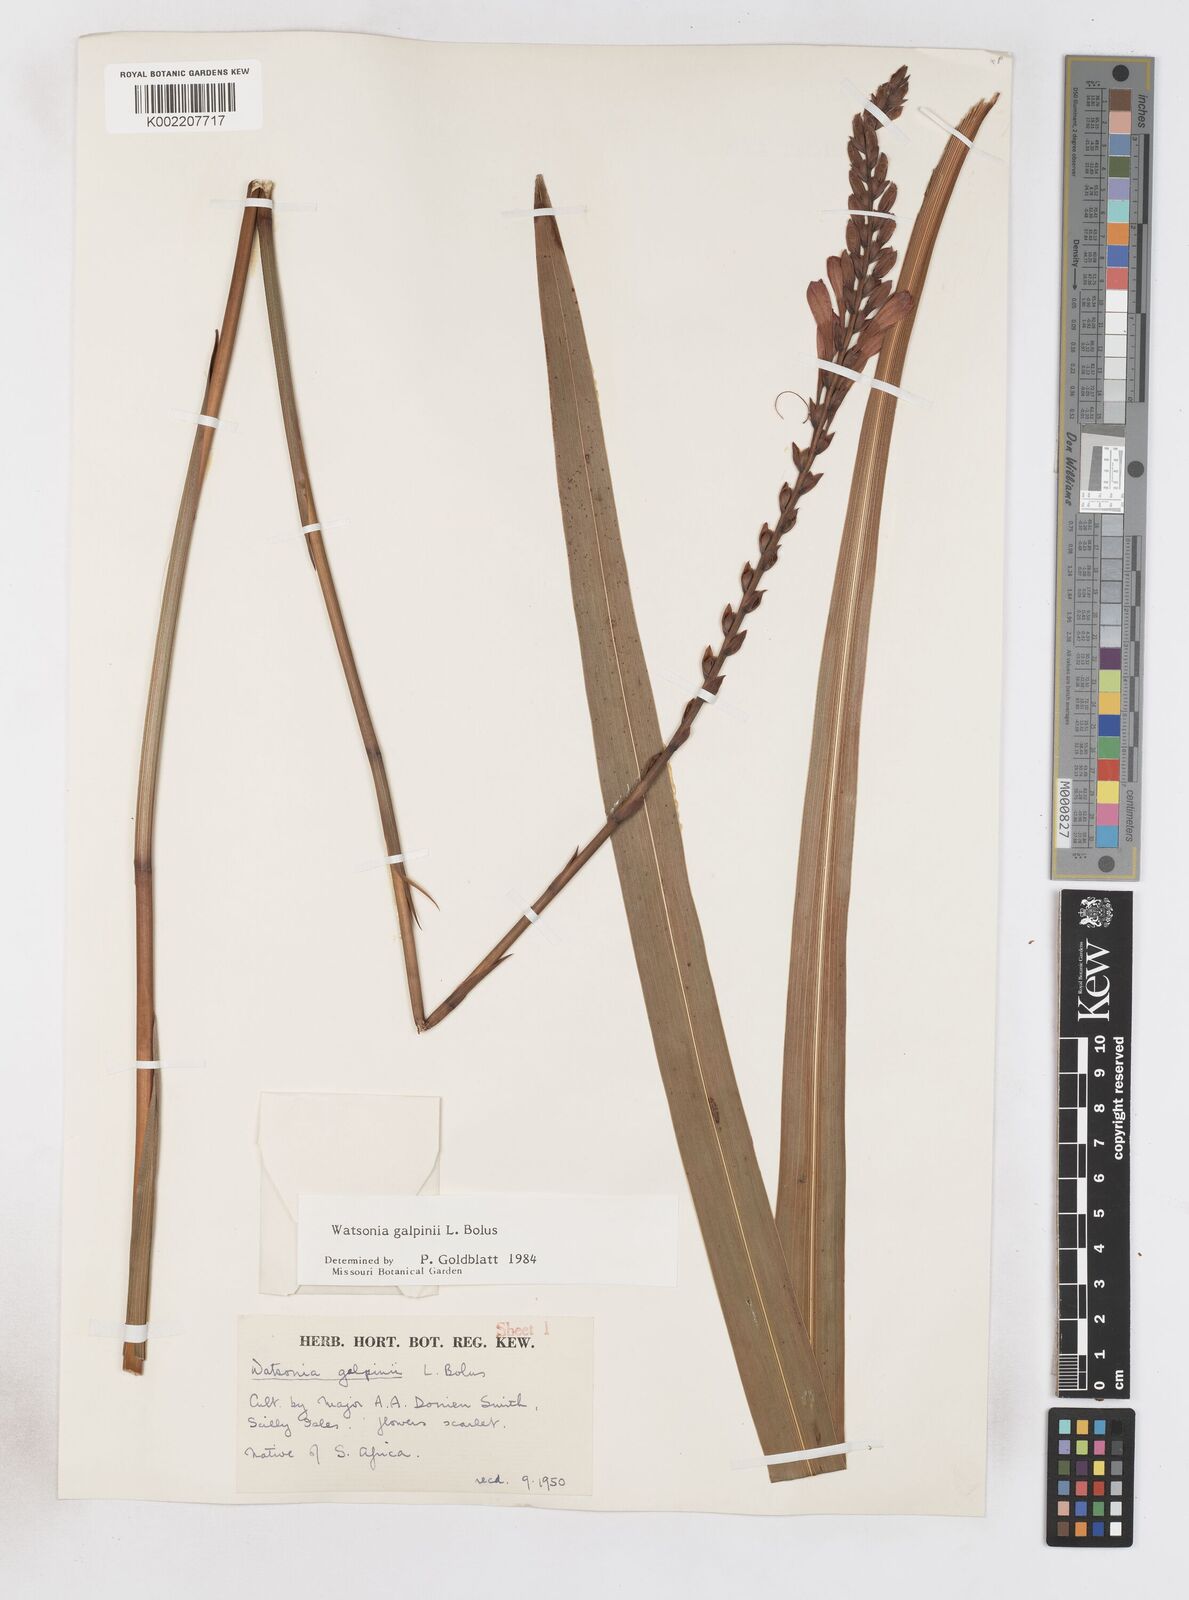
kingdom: Plantae
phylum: Tracheophyta
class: Liliopsida
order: Asparagales
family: Iridaceae
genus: Watsonia
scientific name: Watsonia galpinii
